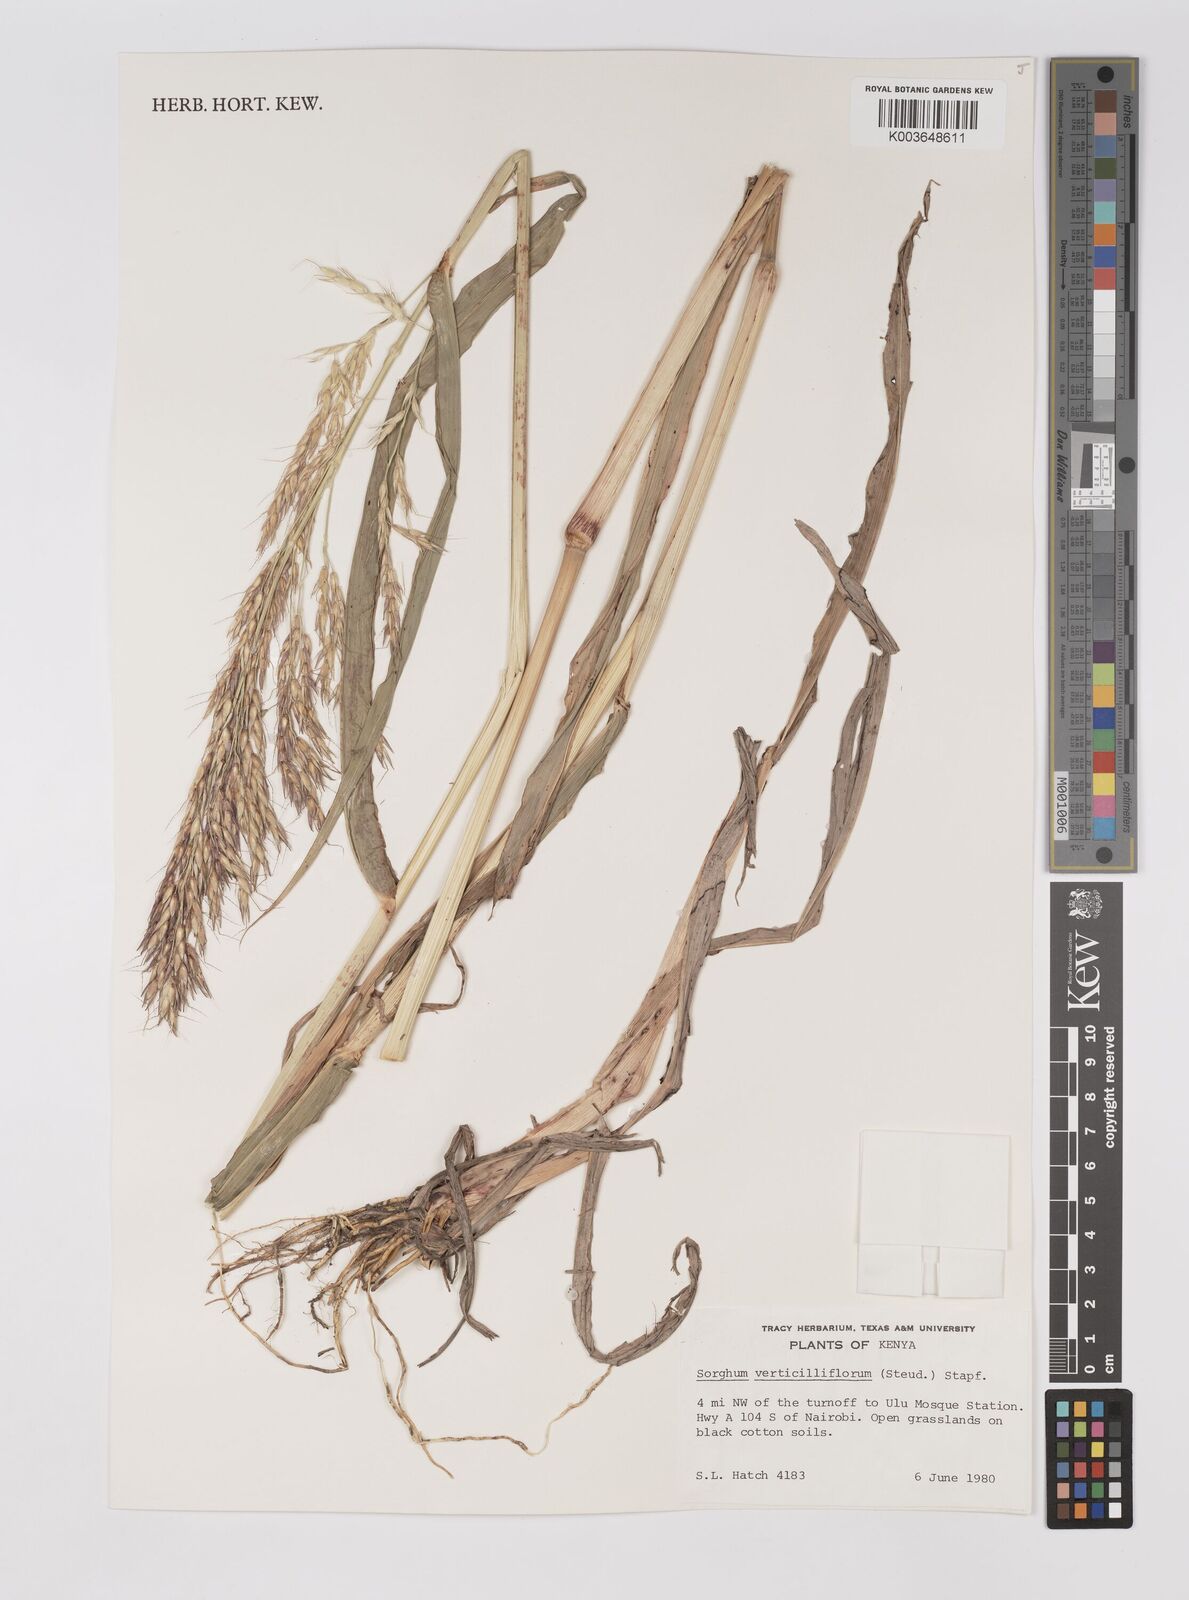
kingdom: Plantae
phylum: Tracheophyta
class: Liliopsida
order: Poales
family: Poaceae
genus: Sorghum
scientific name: Sorghum arundinaceum
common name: Sorghum
